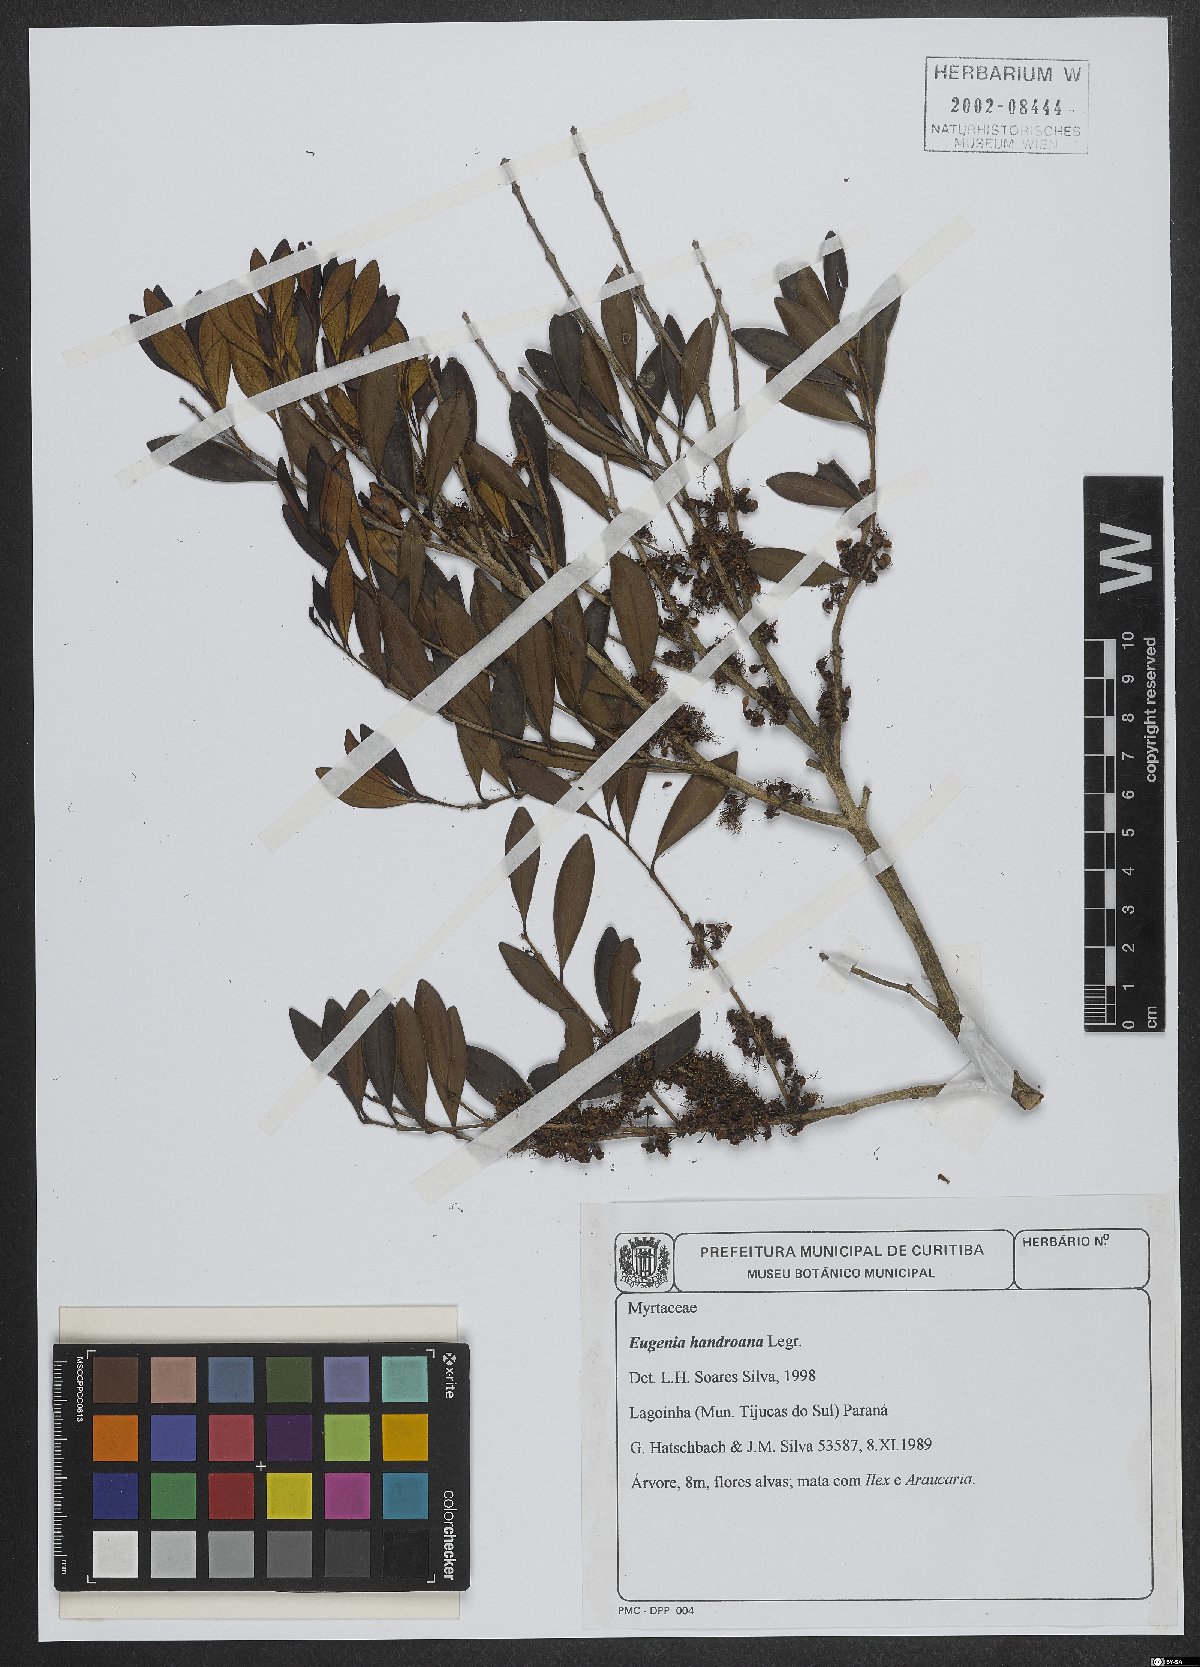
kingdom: Plantae
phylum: Tracheophyta
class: Magnoliopsida
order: Myrtales
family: Myrtaceae
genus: Eugenia
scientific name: Eugenia handroana
